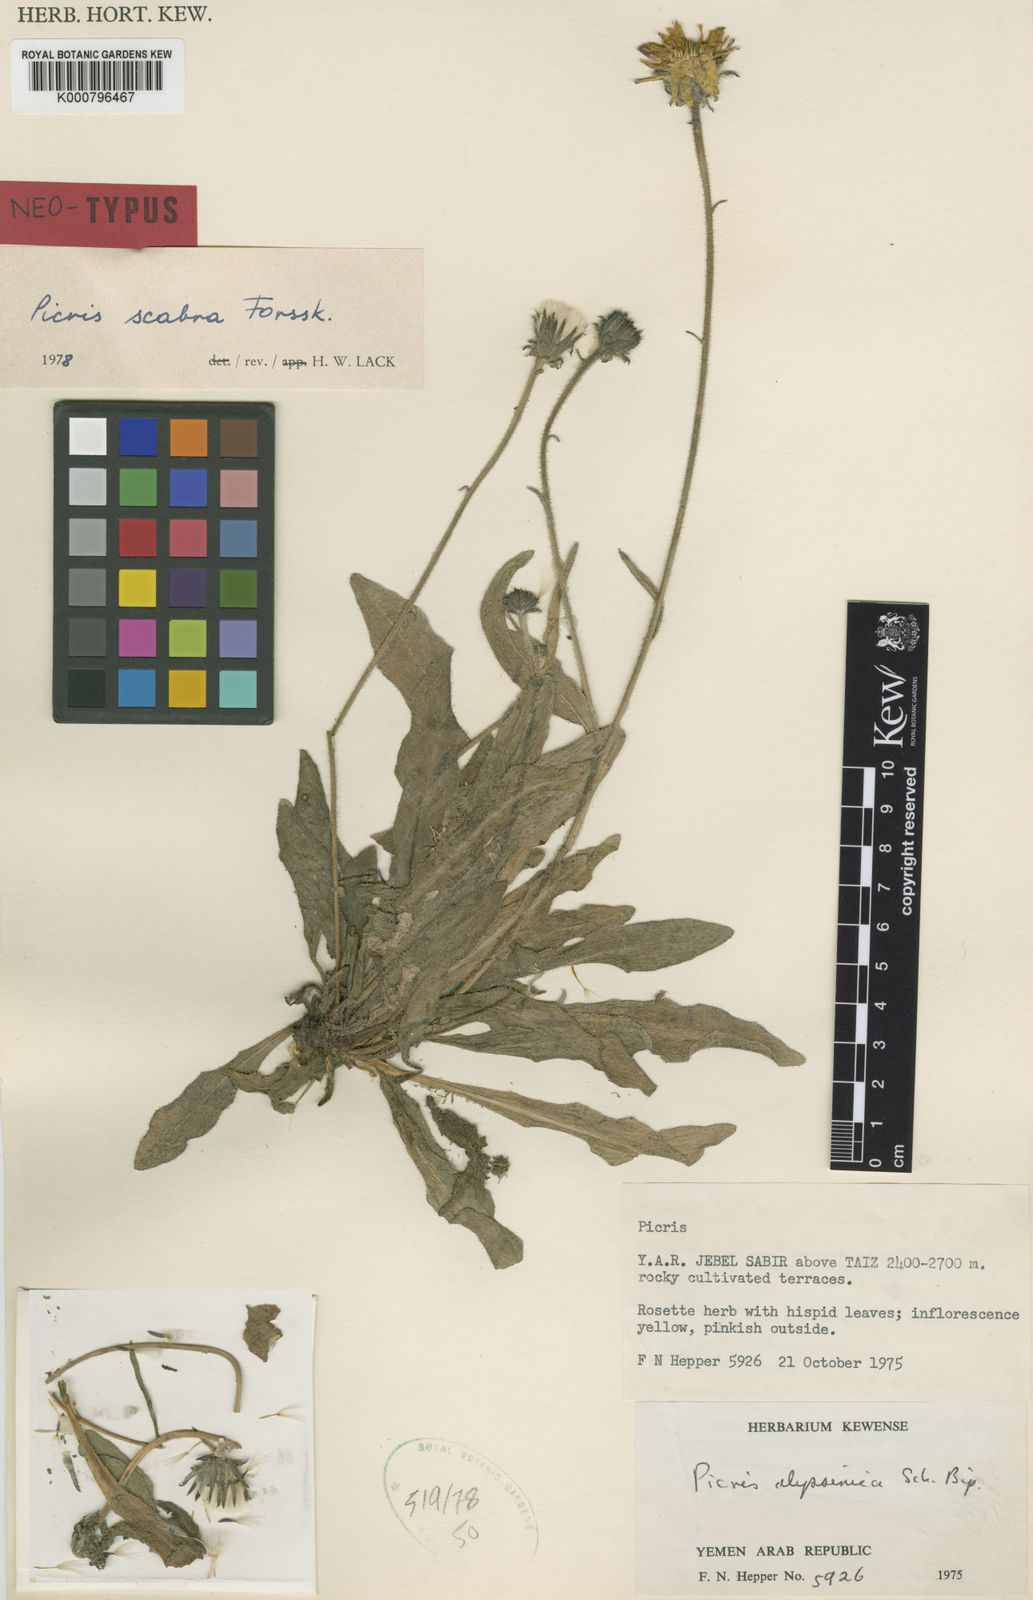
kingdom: Plantae
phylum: Tracheophyta
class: Magnoliopsida
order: Asterales
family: Asteraceae
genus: Picris
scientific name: Picris scabra
